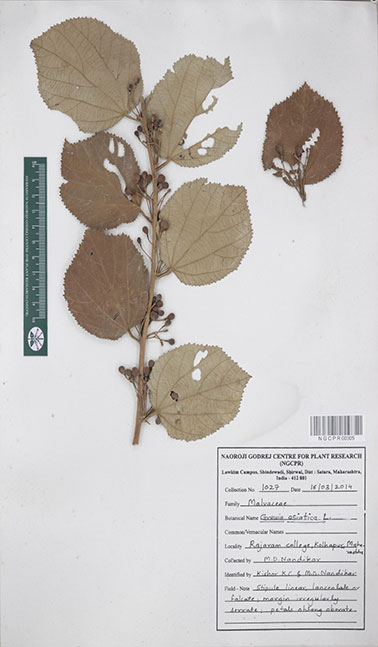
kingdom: Plantae
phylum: Tracheophyta
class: Magnoliopsida
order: Malvales
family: Malvaceae
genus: Grewia
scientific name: Grewia asiatica
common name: Phalsa
